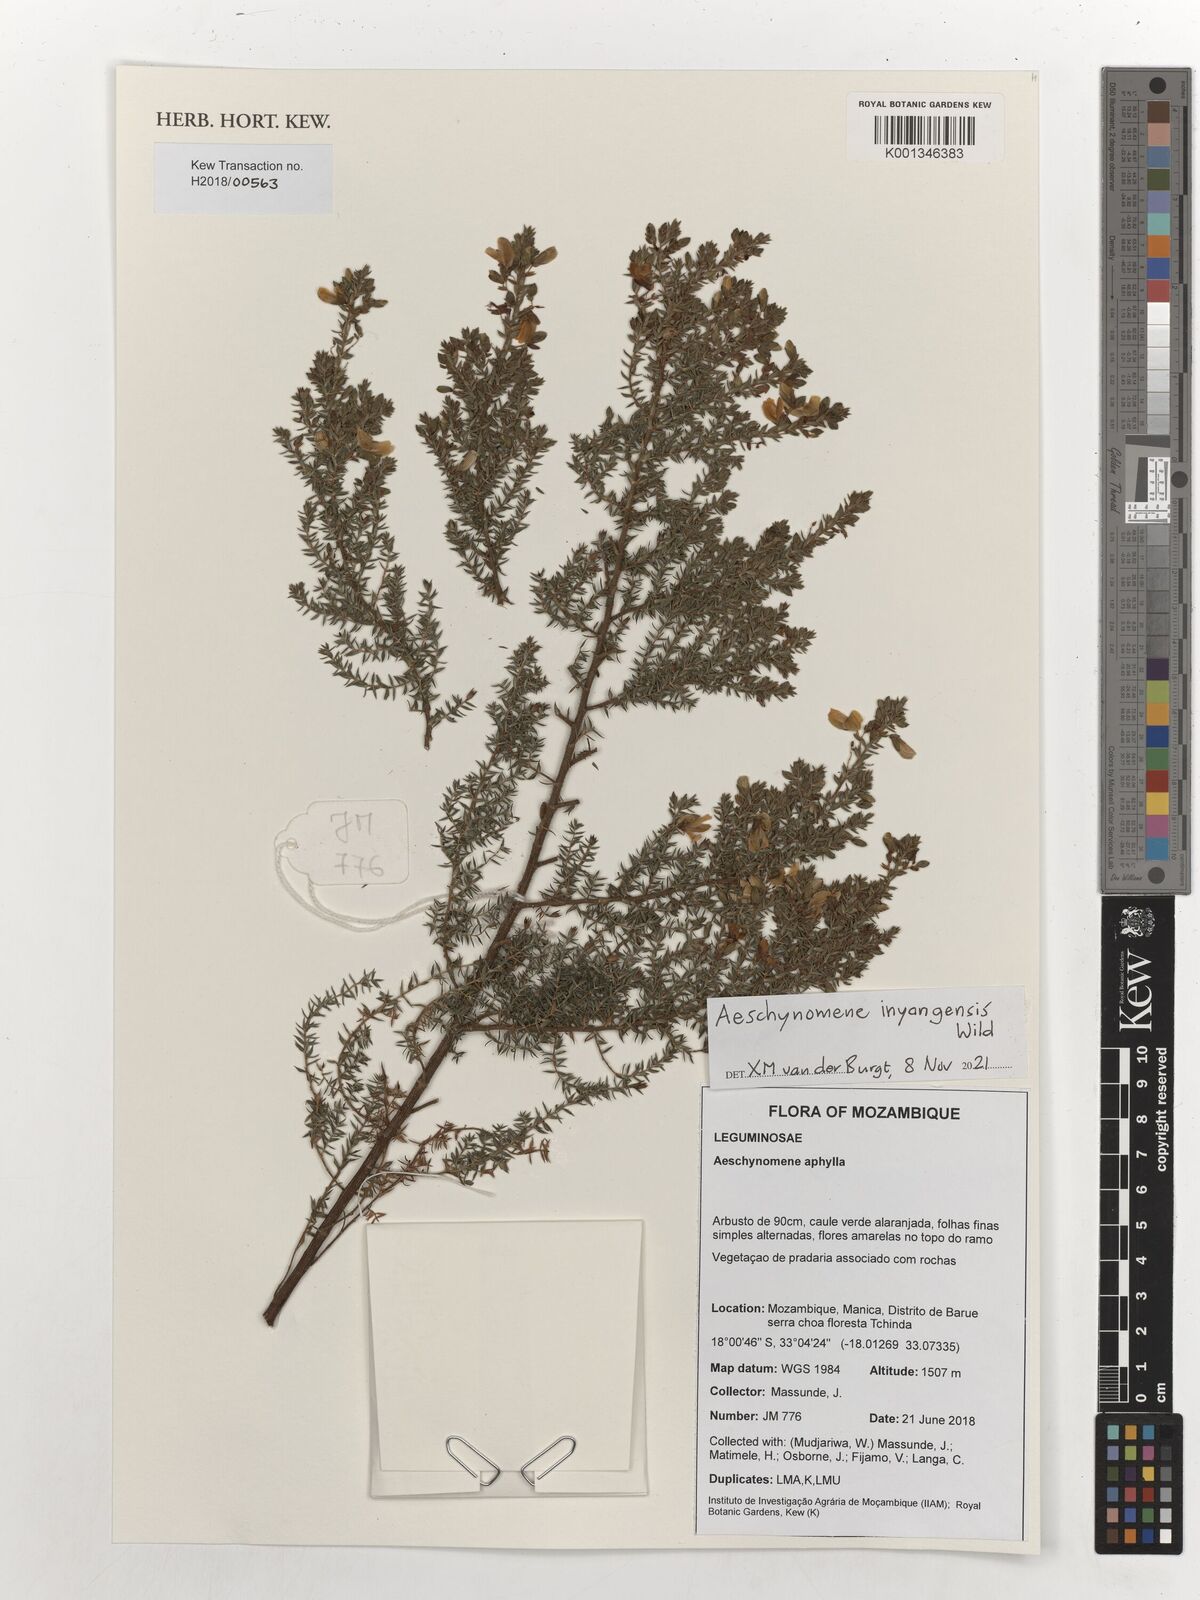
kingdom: Plantae
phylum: Tracheophyta
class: Magnoliopsida
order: Fabales
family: Fabaceae
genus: Aeschynomene
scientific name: Aeschynomene inyangensis
